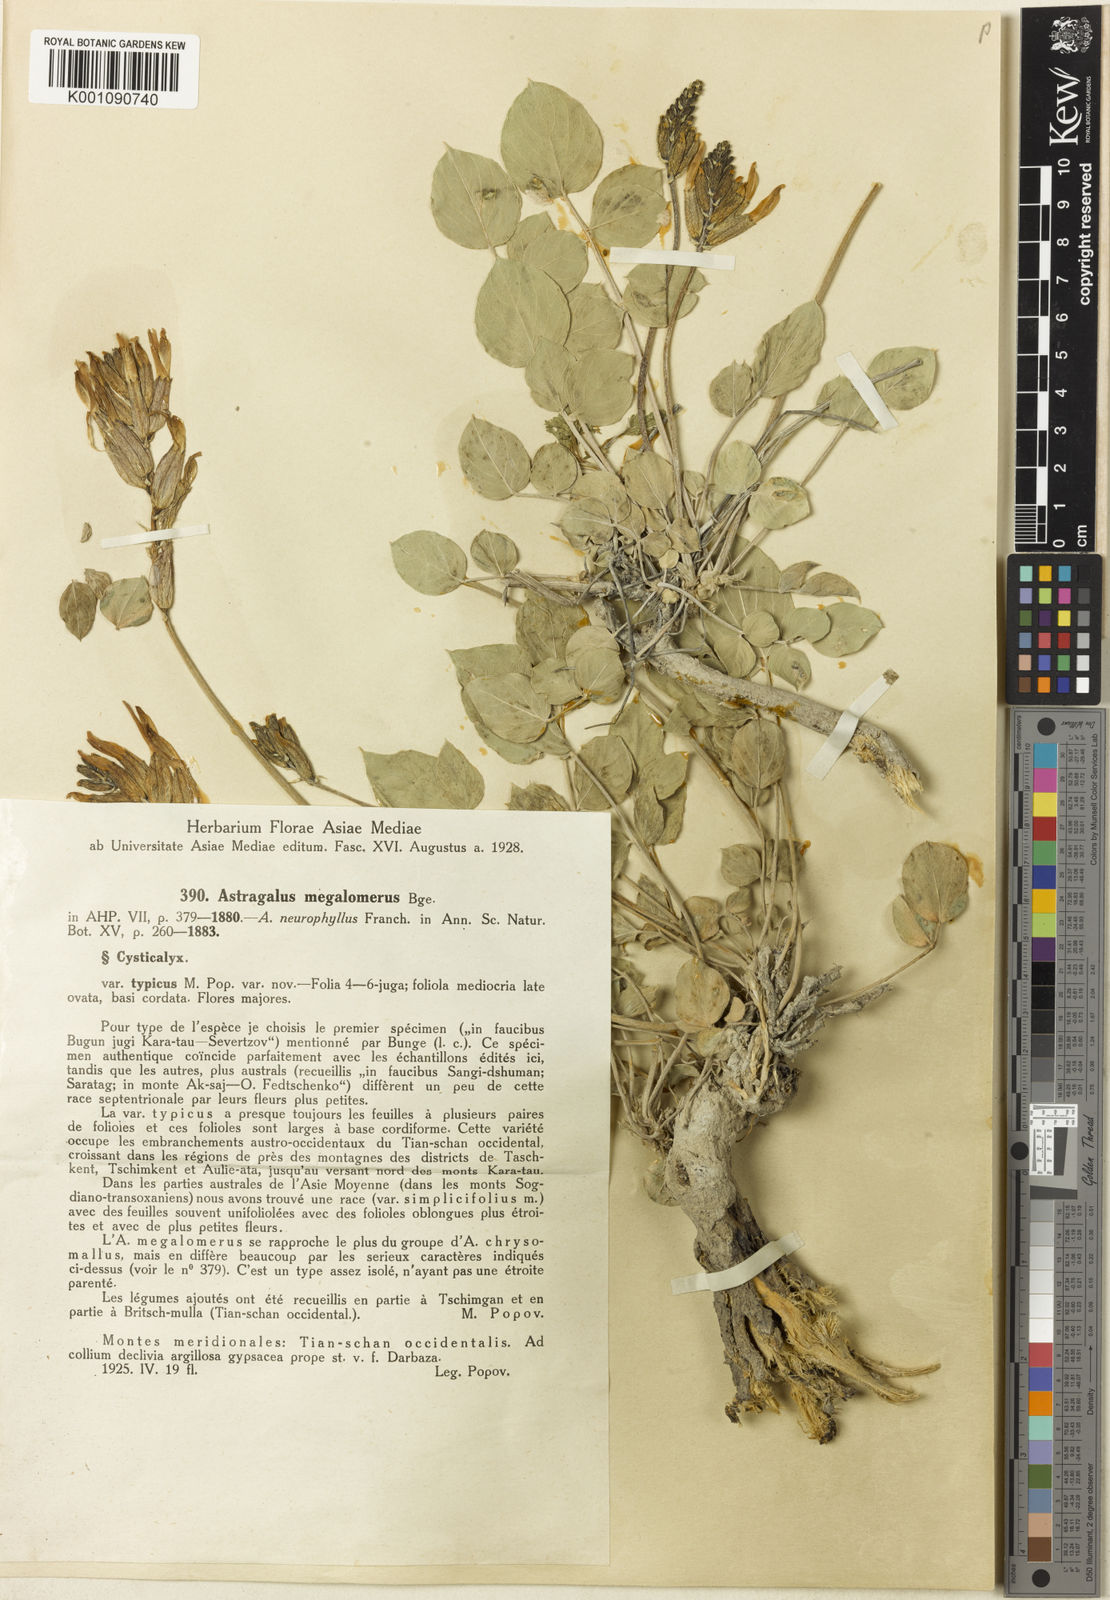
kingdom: Plantae
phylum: Tracheophyta
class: Magnoliopsida
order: Fabales
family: Fabaceae
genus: Astragalus
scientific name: Astragalus
